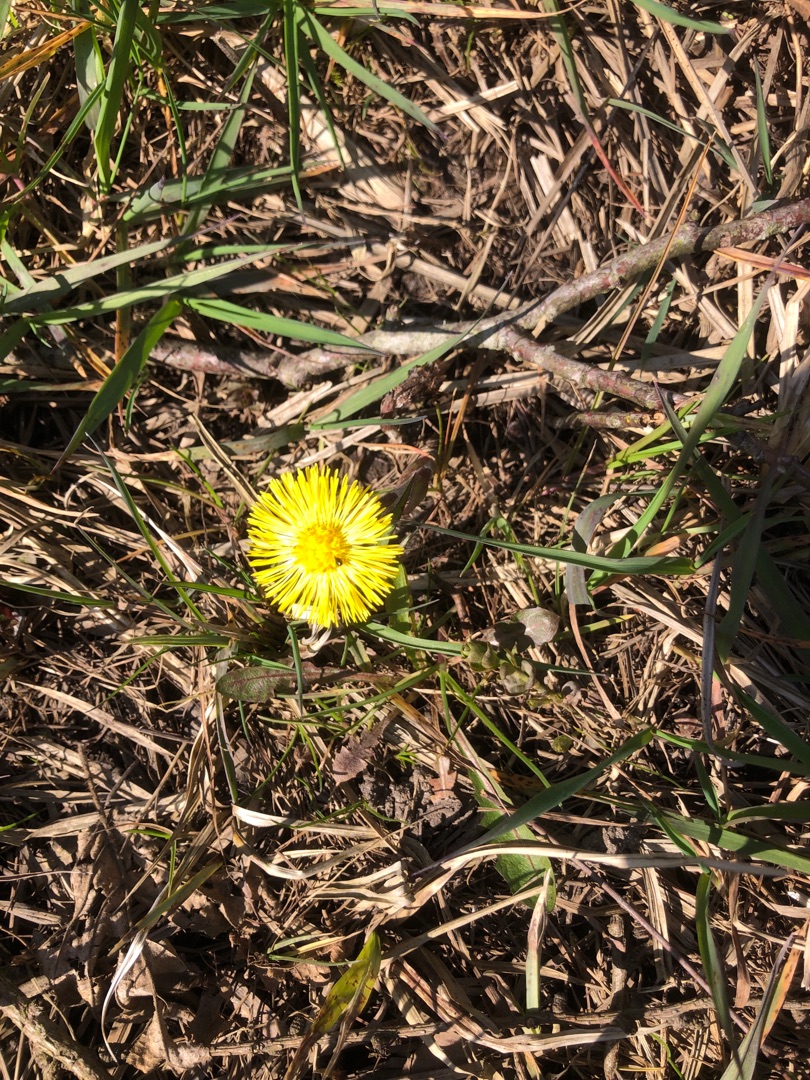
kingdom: Plantae
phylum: Tracheophyta
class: Magnoliopsida
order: Asterales
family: Asteraceae
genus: Tussilago
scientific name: Tussilago farfara
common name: Følfod
